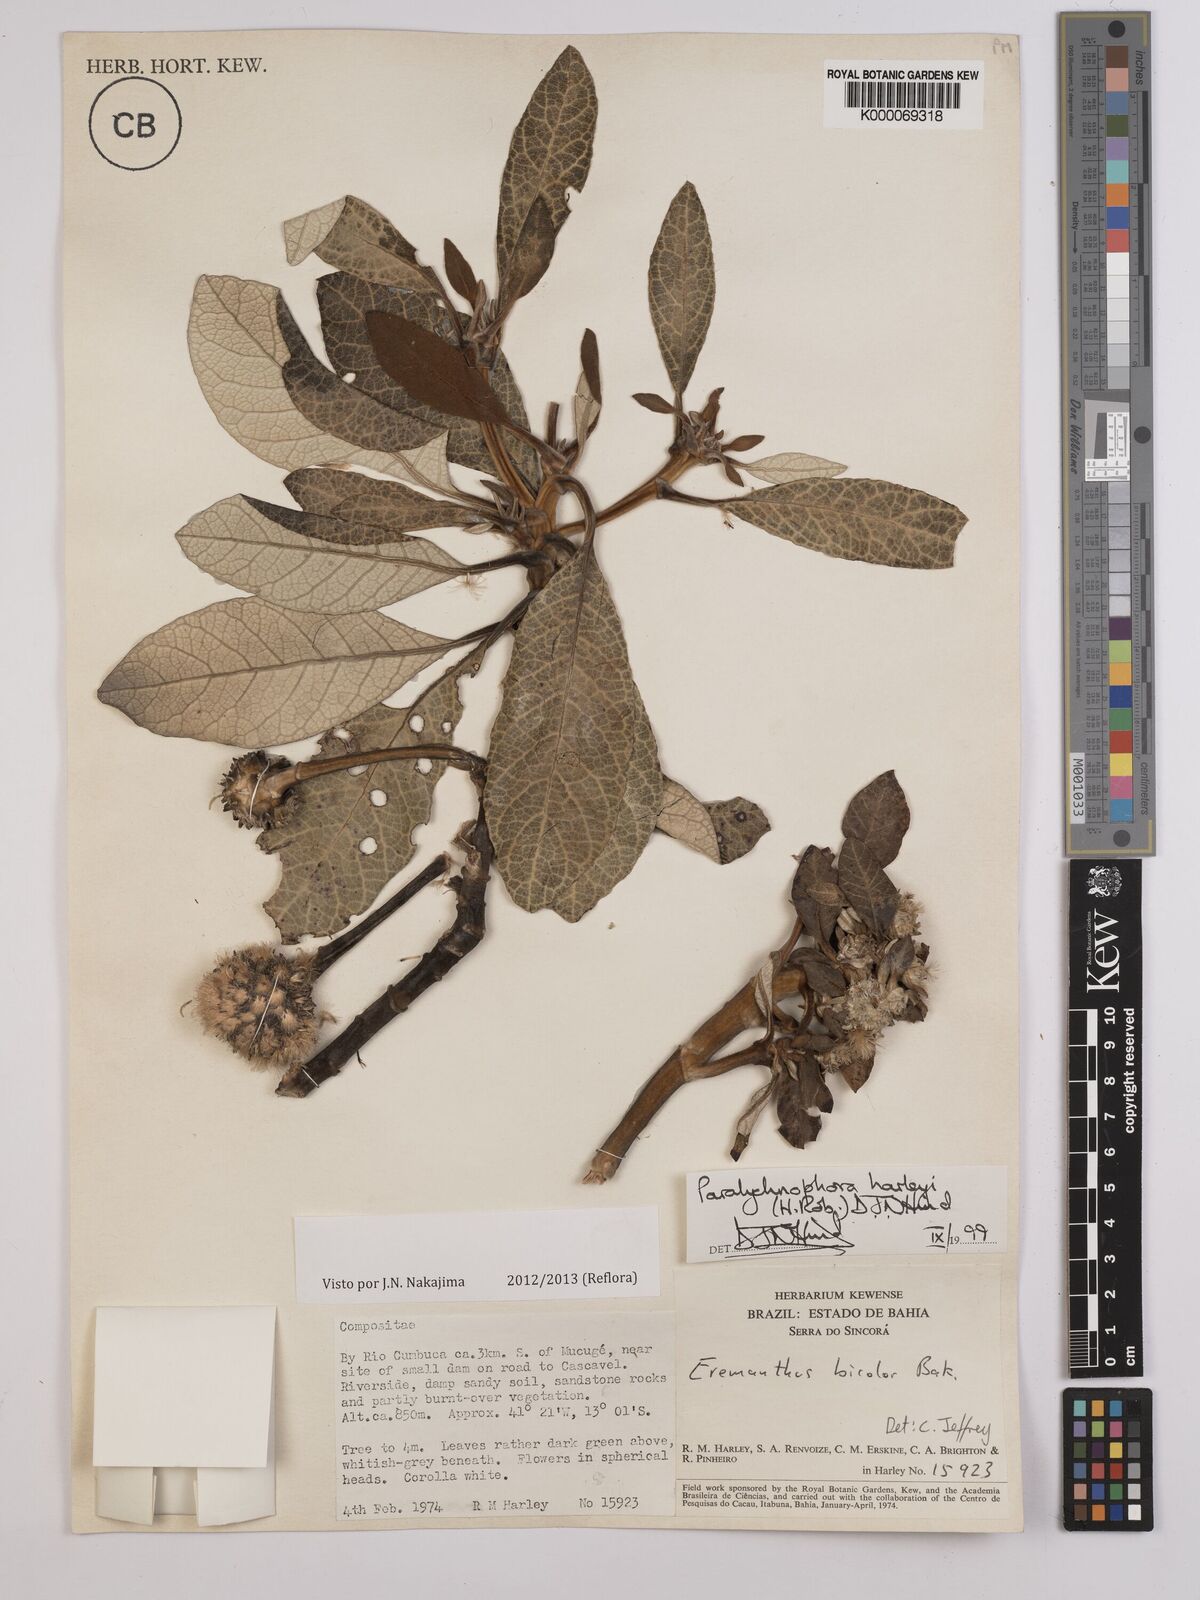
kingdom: Plantae
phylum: Tracheophyta
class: Magnoliopsida
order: Asterales
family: Asteraceae
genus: Paralychnophora
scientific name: Paralychnophora harleyi
